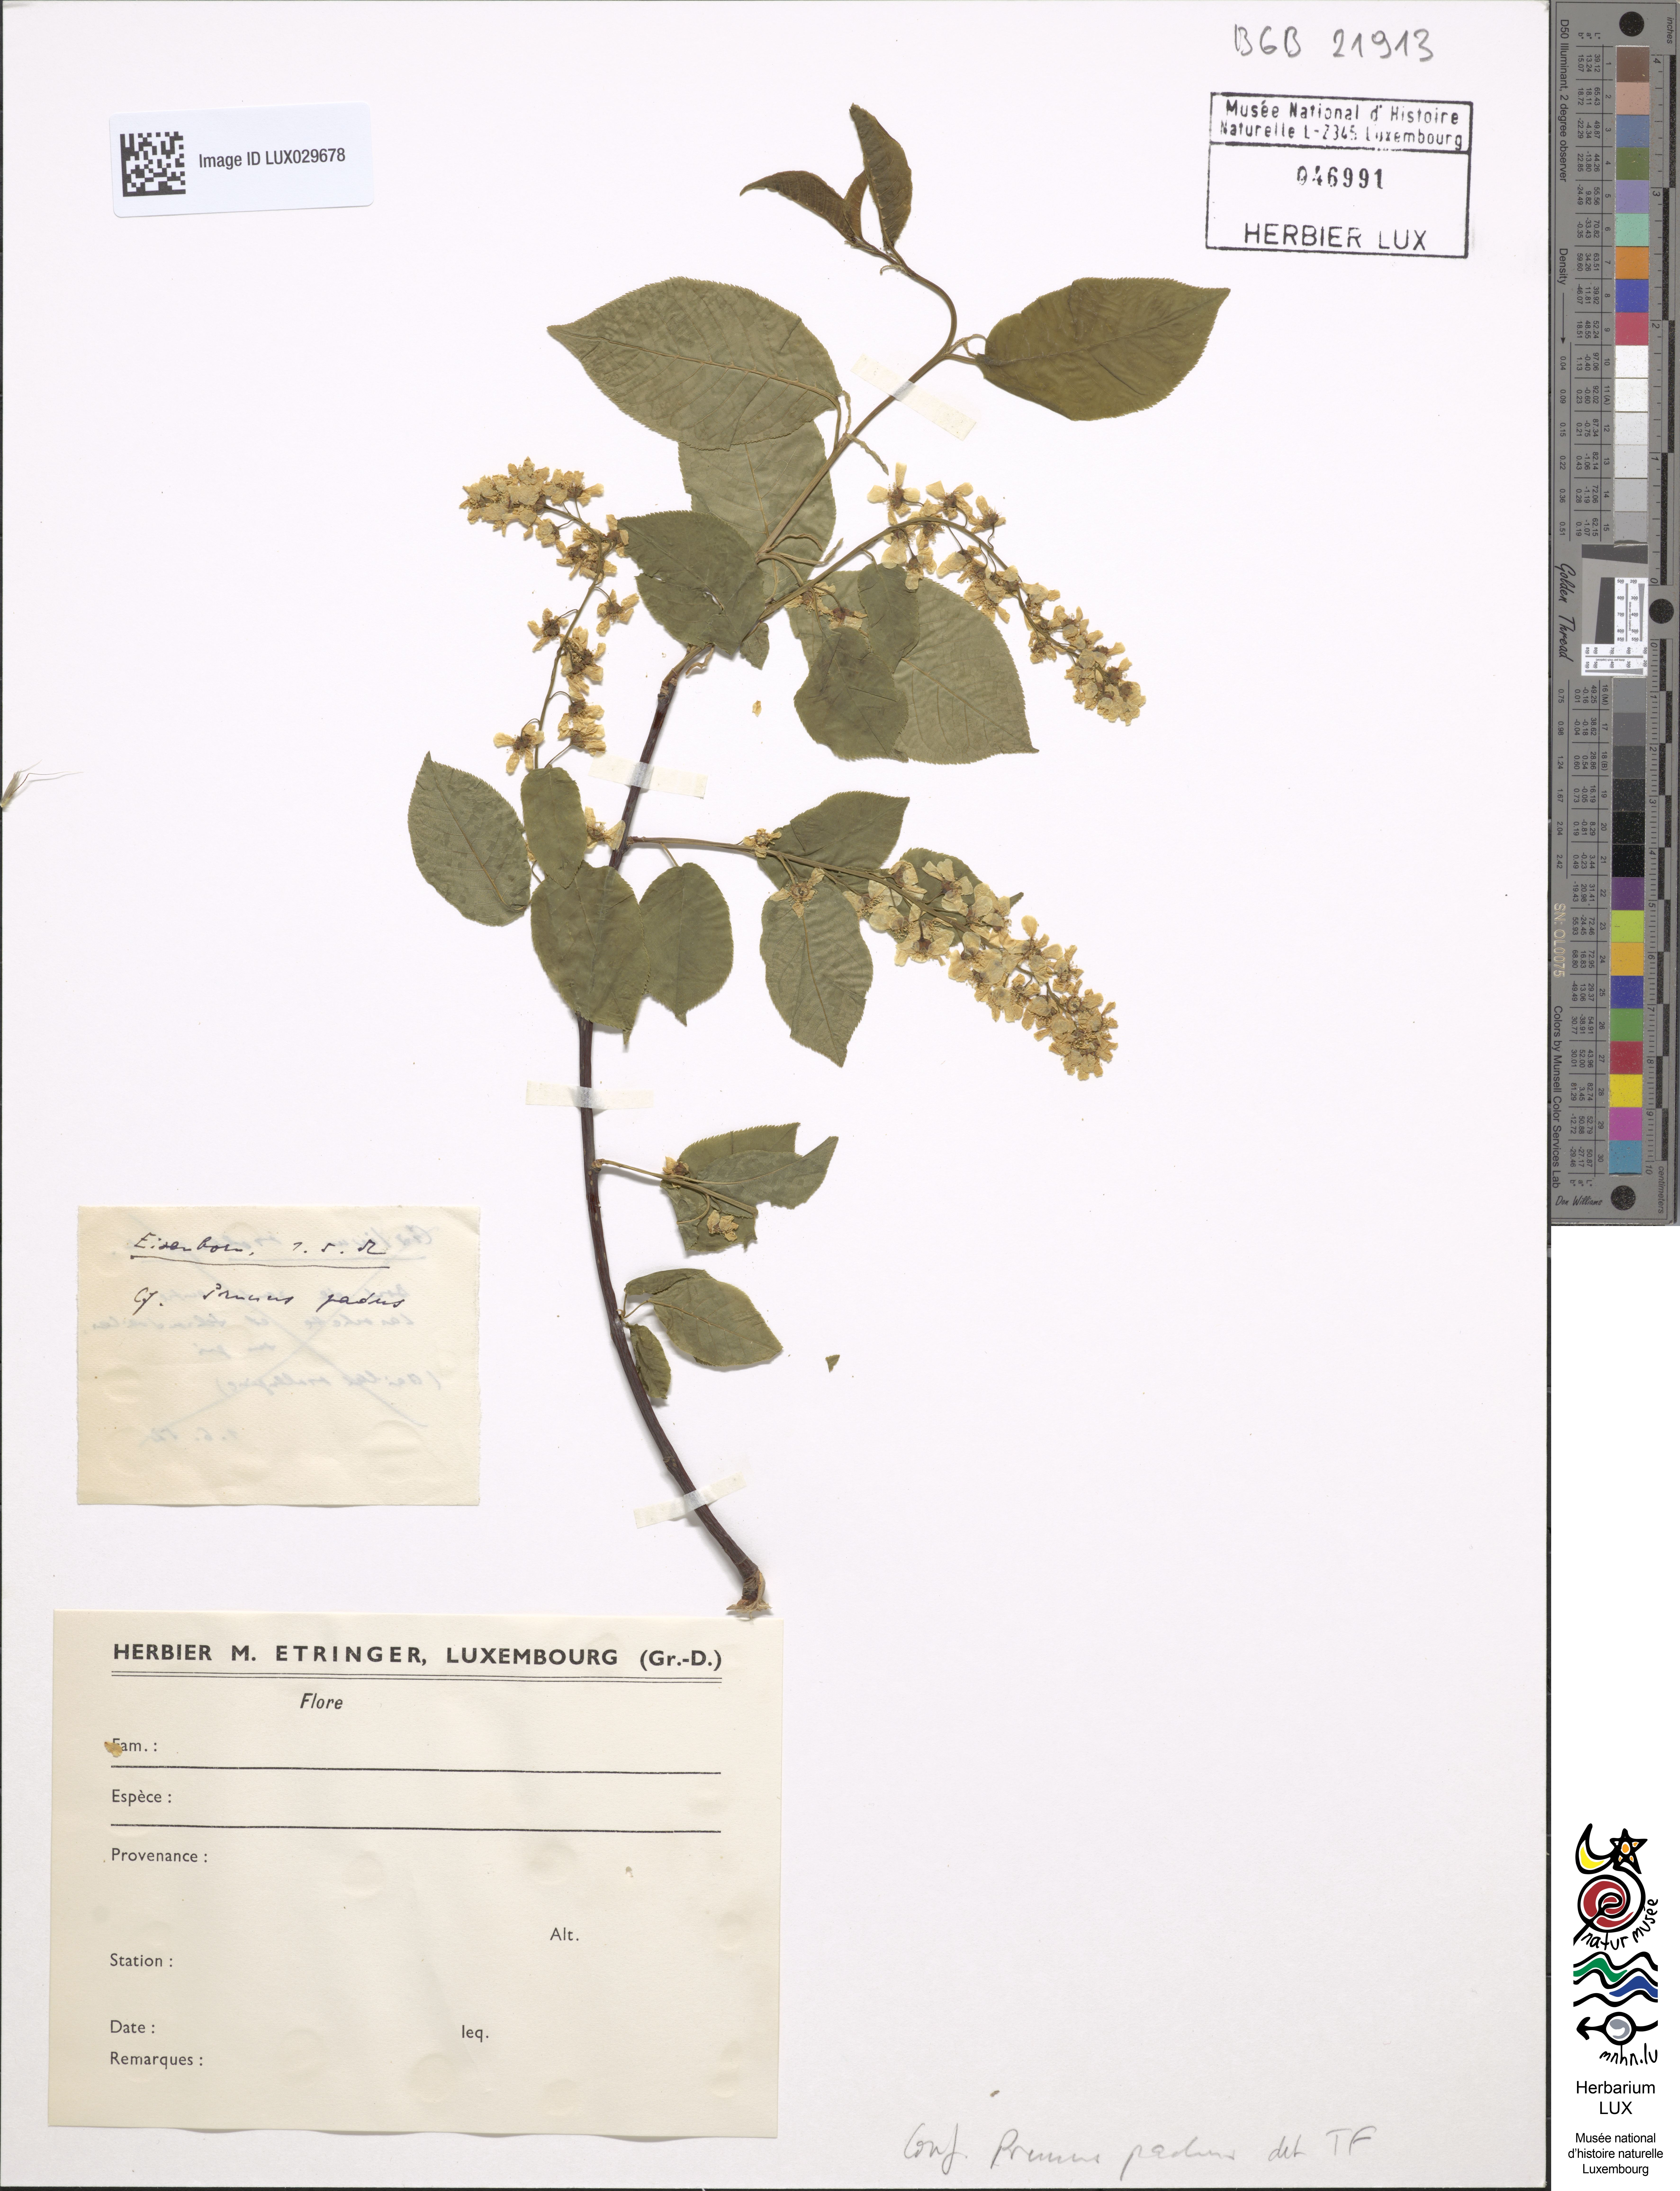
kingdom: Plantae
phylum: Tracheophyta
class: Magnoliopsida
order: Rosales
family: Rosaceae
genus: Prunus
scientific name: Prunus padus
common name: Bird cherry
